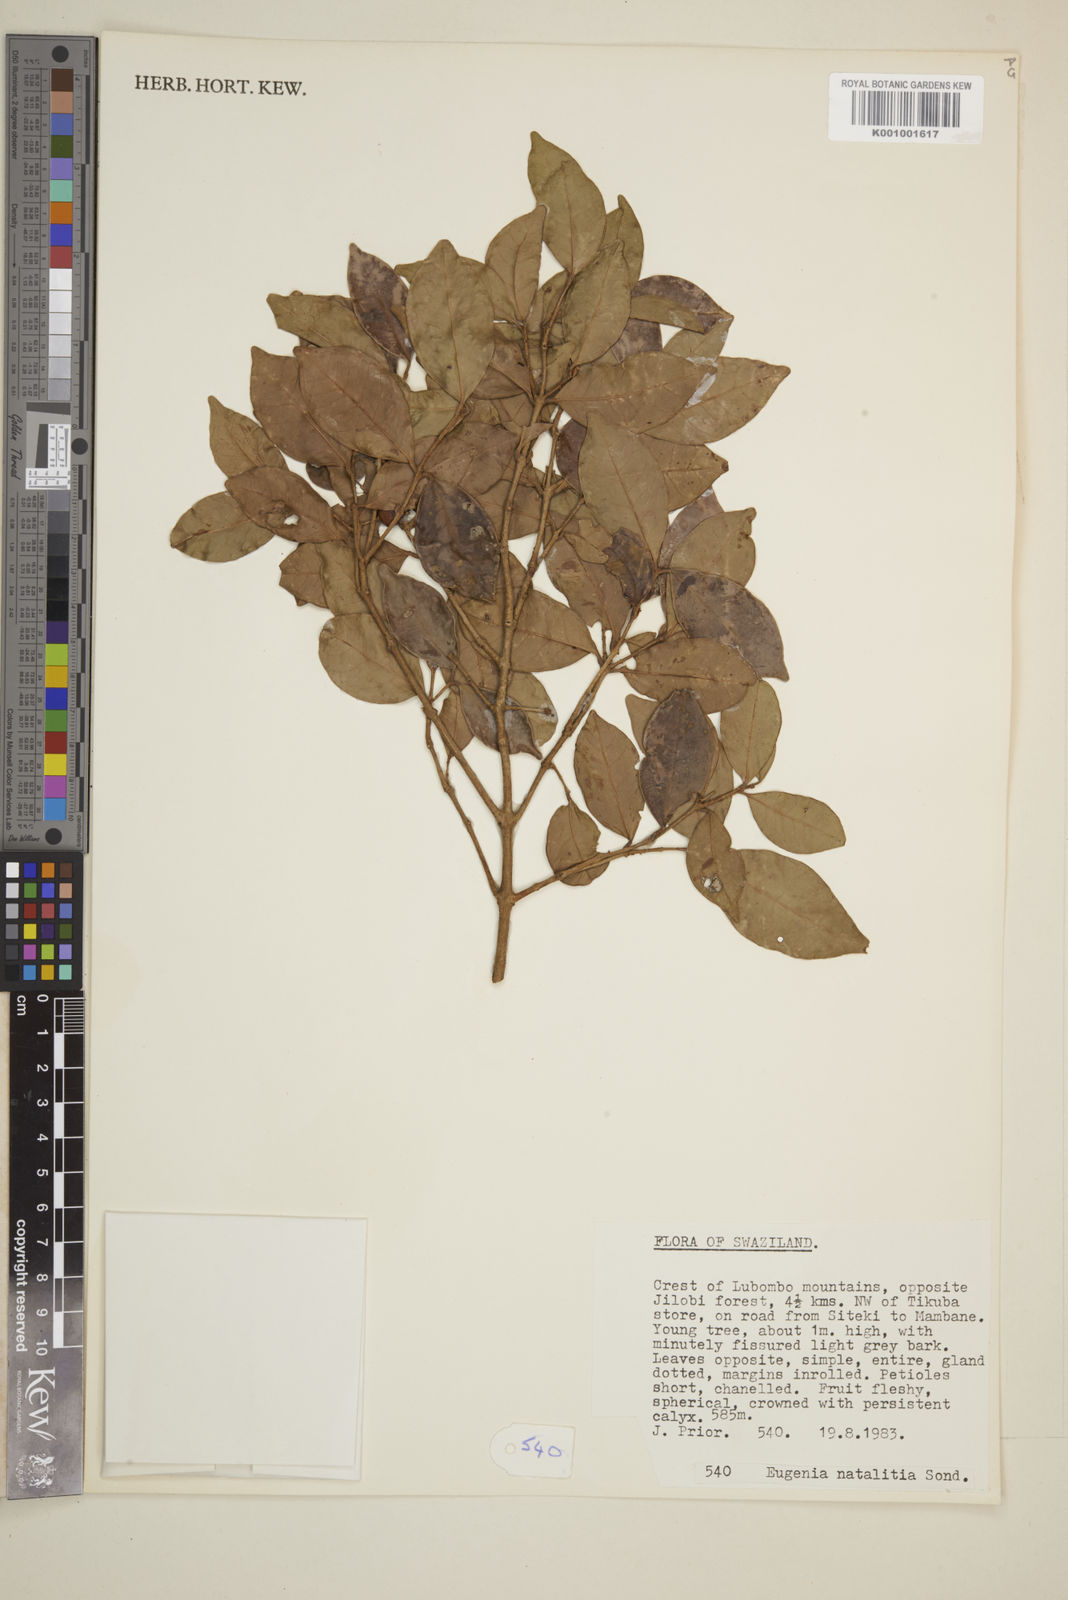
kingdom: Plantae
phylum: Tracheophyta
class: Magnoliopsida
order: Myrtales
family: Myrtaceae
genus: Eugenia
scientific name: Eugenia natalitia
